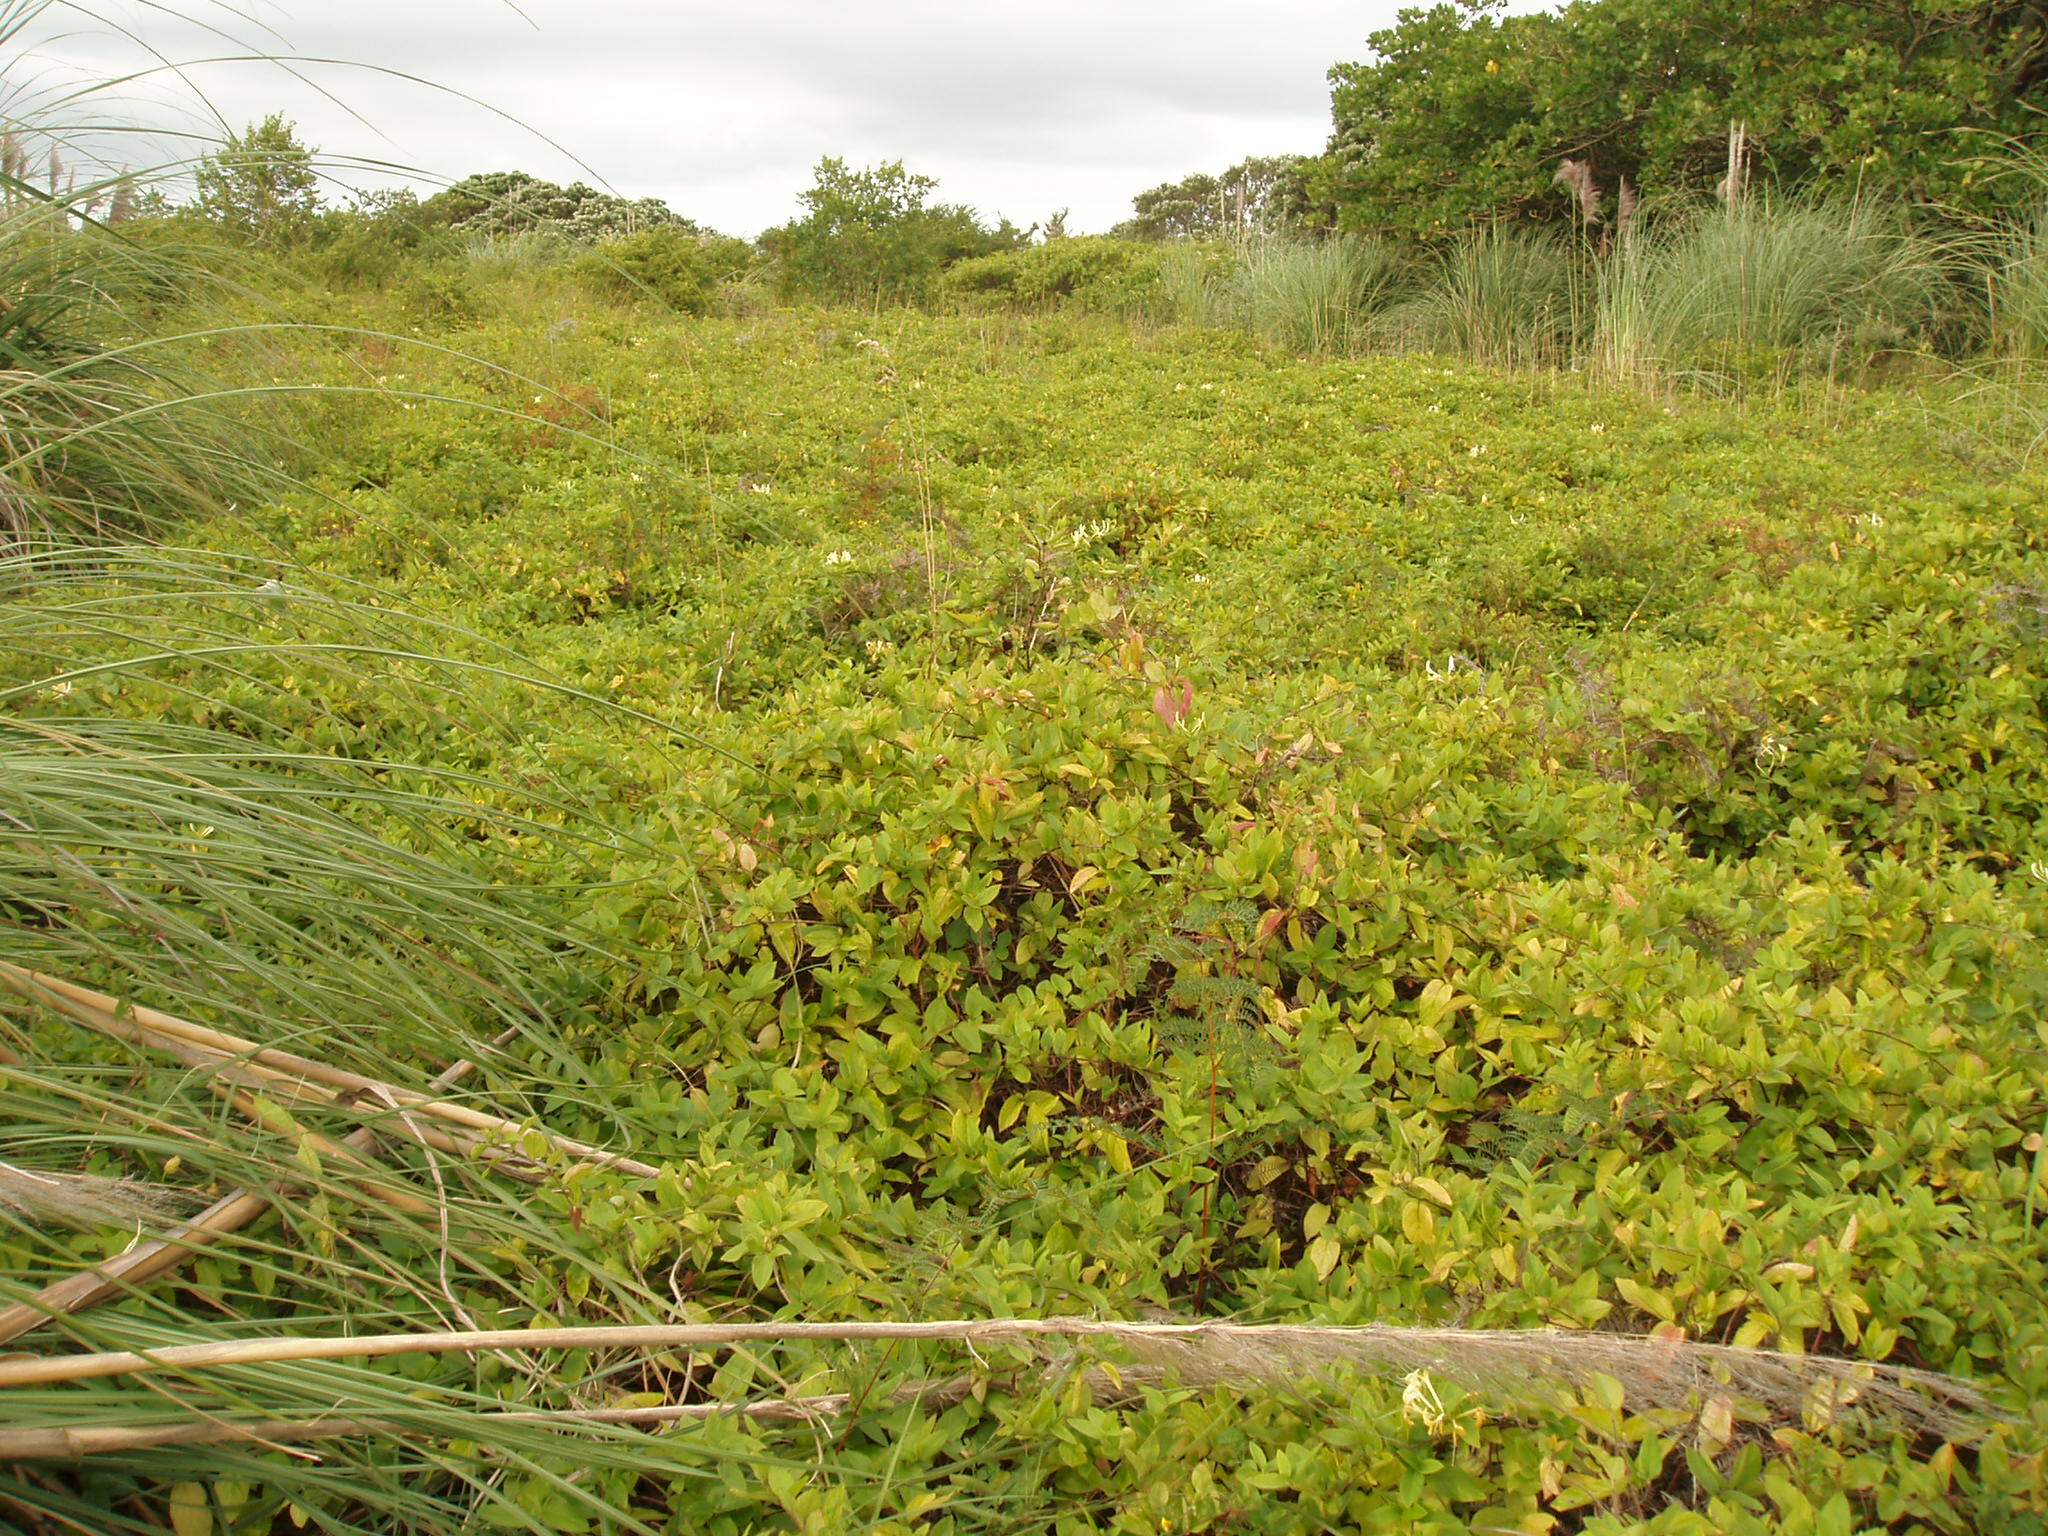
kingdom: Plantae
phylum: Tracheophyta
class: Magnoliopsida
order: Dipsacales
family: Caprifoliaceae
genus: Lonicera
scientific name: Lonicera japonica
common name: Japanese honeysuckle
